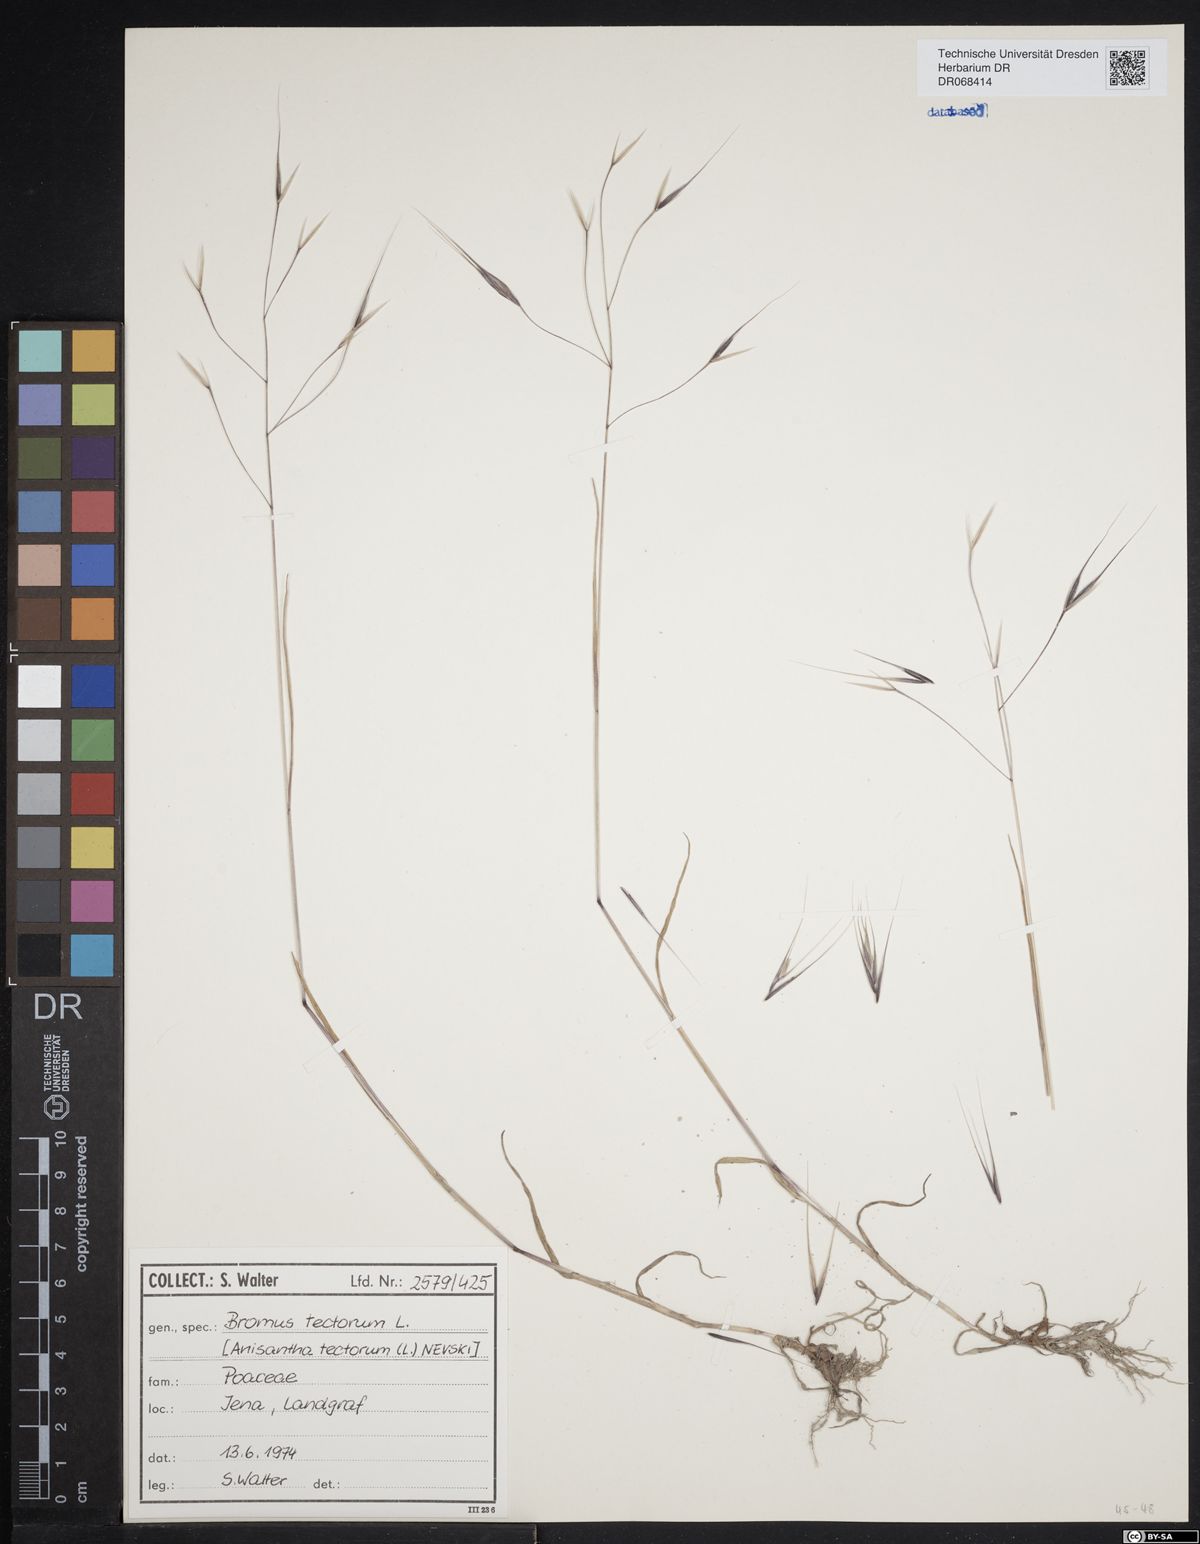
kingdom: Plantae
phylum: Tracheophyta
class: Liliopsida
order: Poales
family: Poaceae
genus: Bromus
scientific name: Bromus tectorum
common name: Cheatgrass
